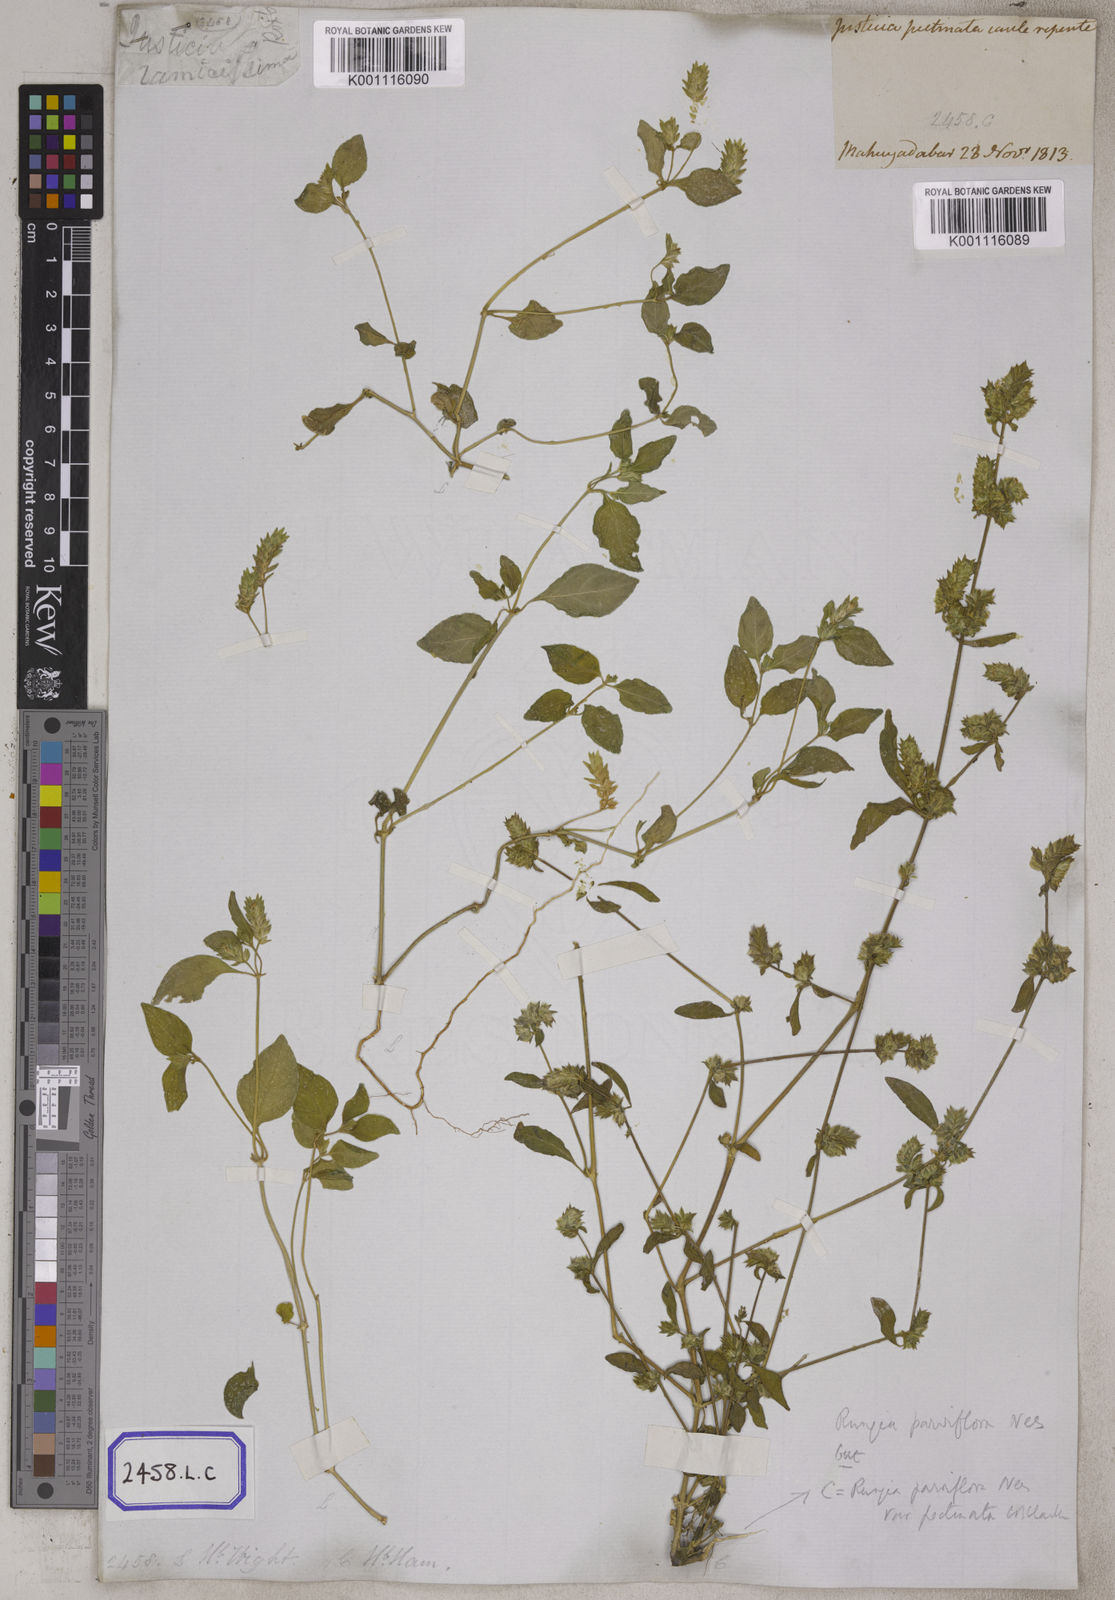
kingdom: Plantae
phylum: Tracheophyta
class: Magnoliopsida
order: Lamiales
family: Acanthaceae
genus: Rungia
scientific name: Rungia pectinata
